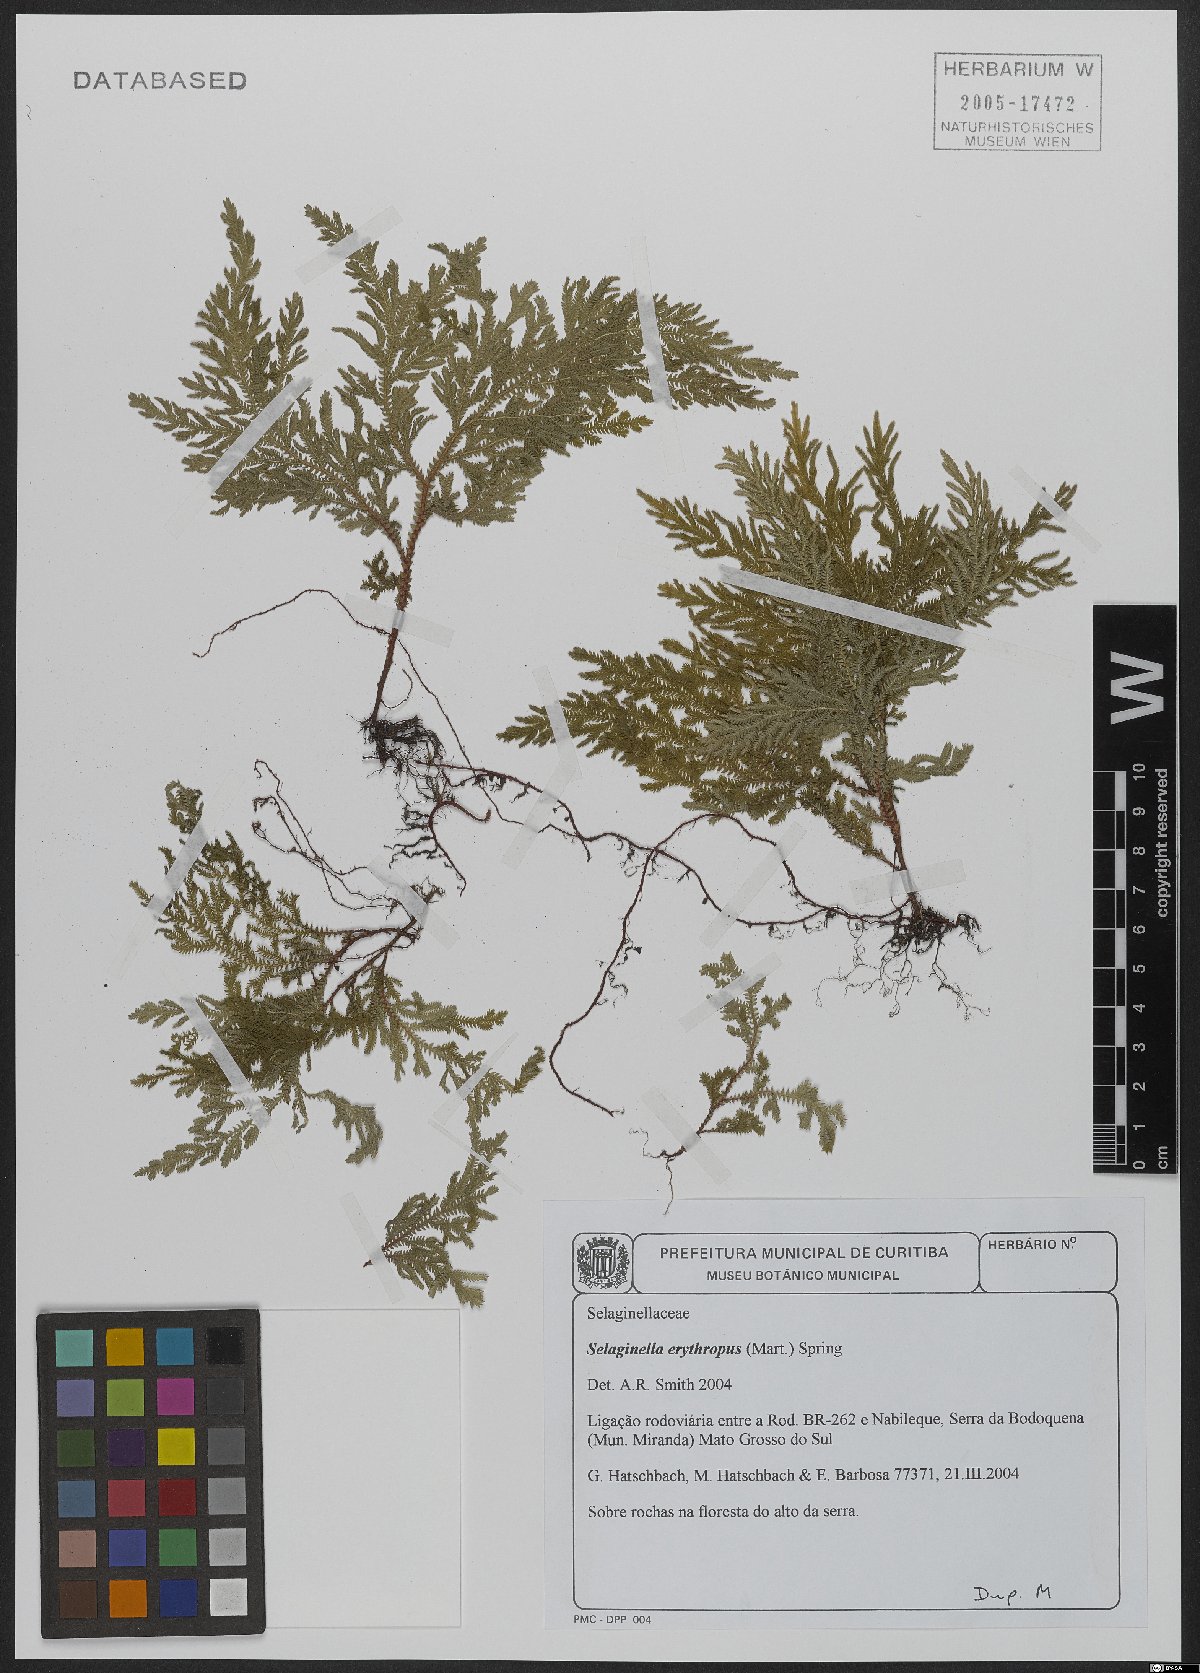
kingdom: Plantae
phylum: Tracheophyta
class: Lycopodiopsida
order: Selaginellales
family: Selaginellaceae
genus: Selaginella
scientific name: Selaginella erythropus
